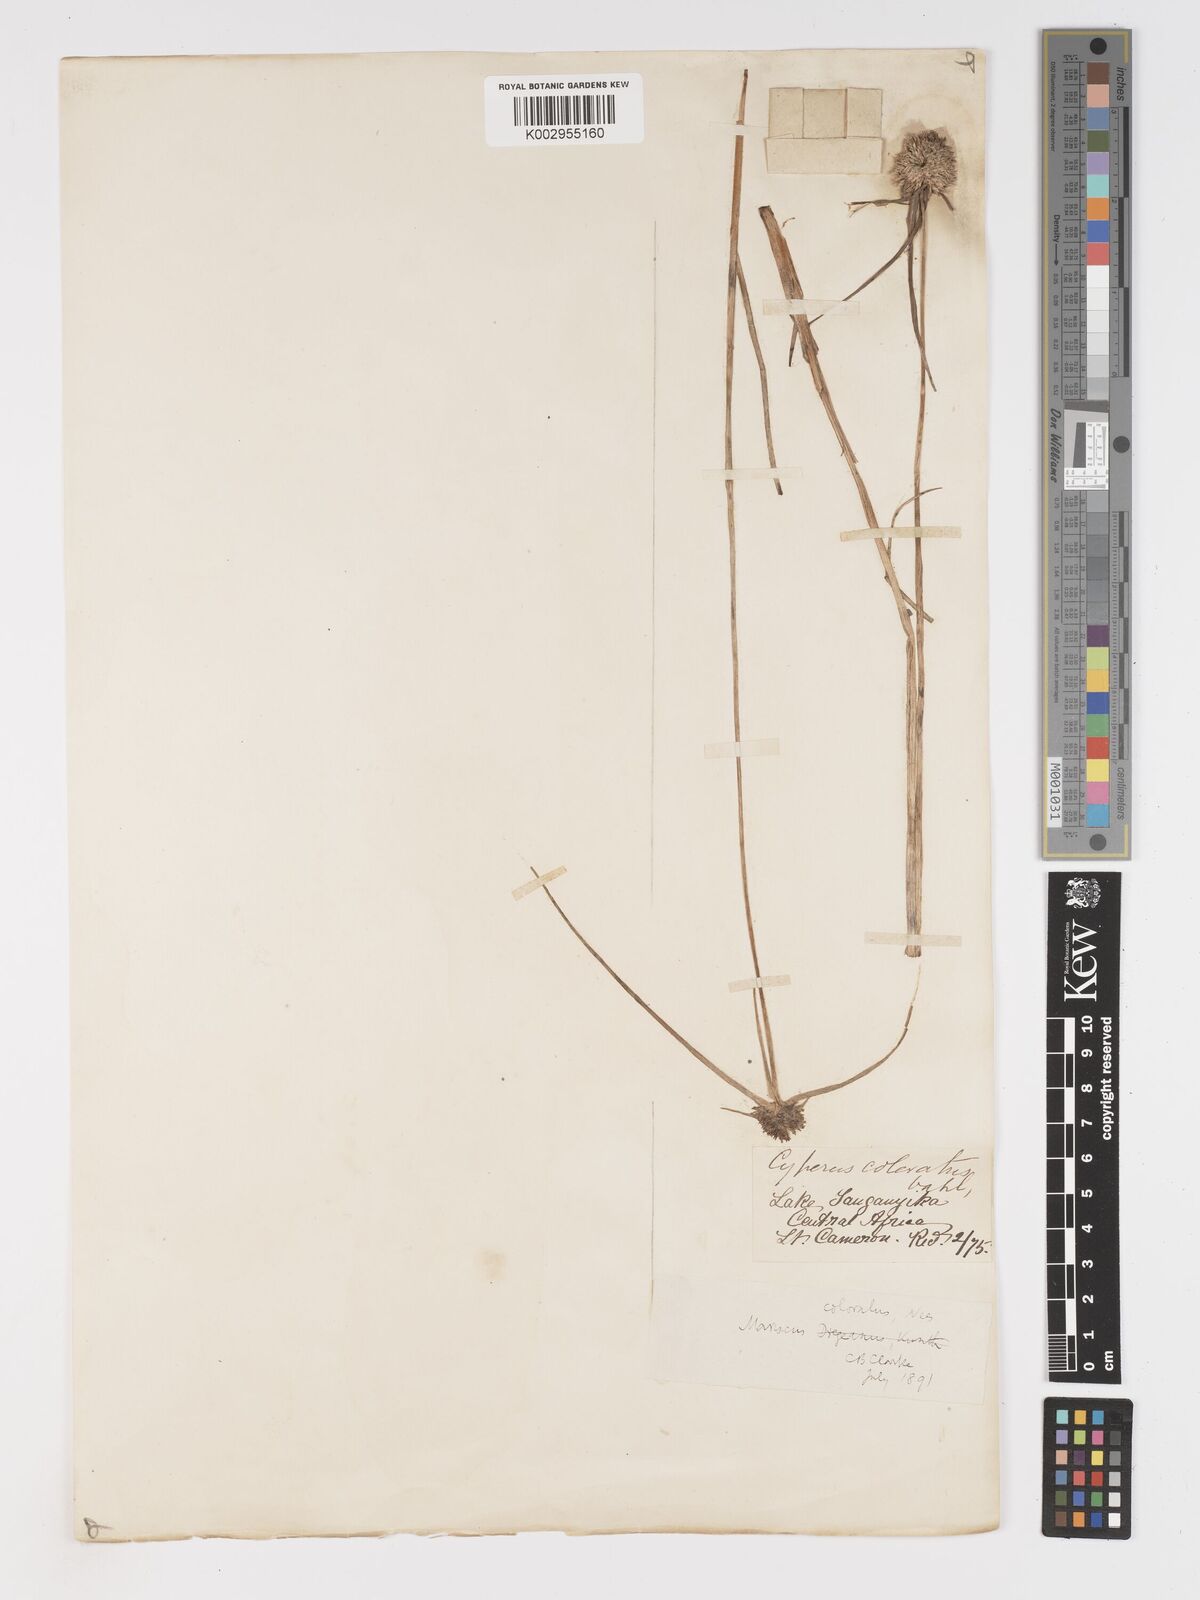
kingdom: Plantae
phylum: Tracheophyta
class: Liliopsida
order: Poales
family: Cyperaceae
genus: Cyperus
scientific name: Cyperus dubius
